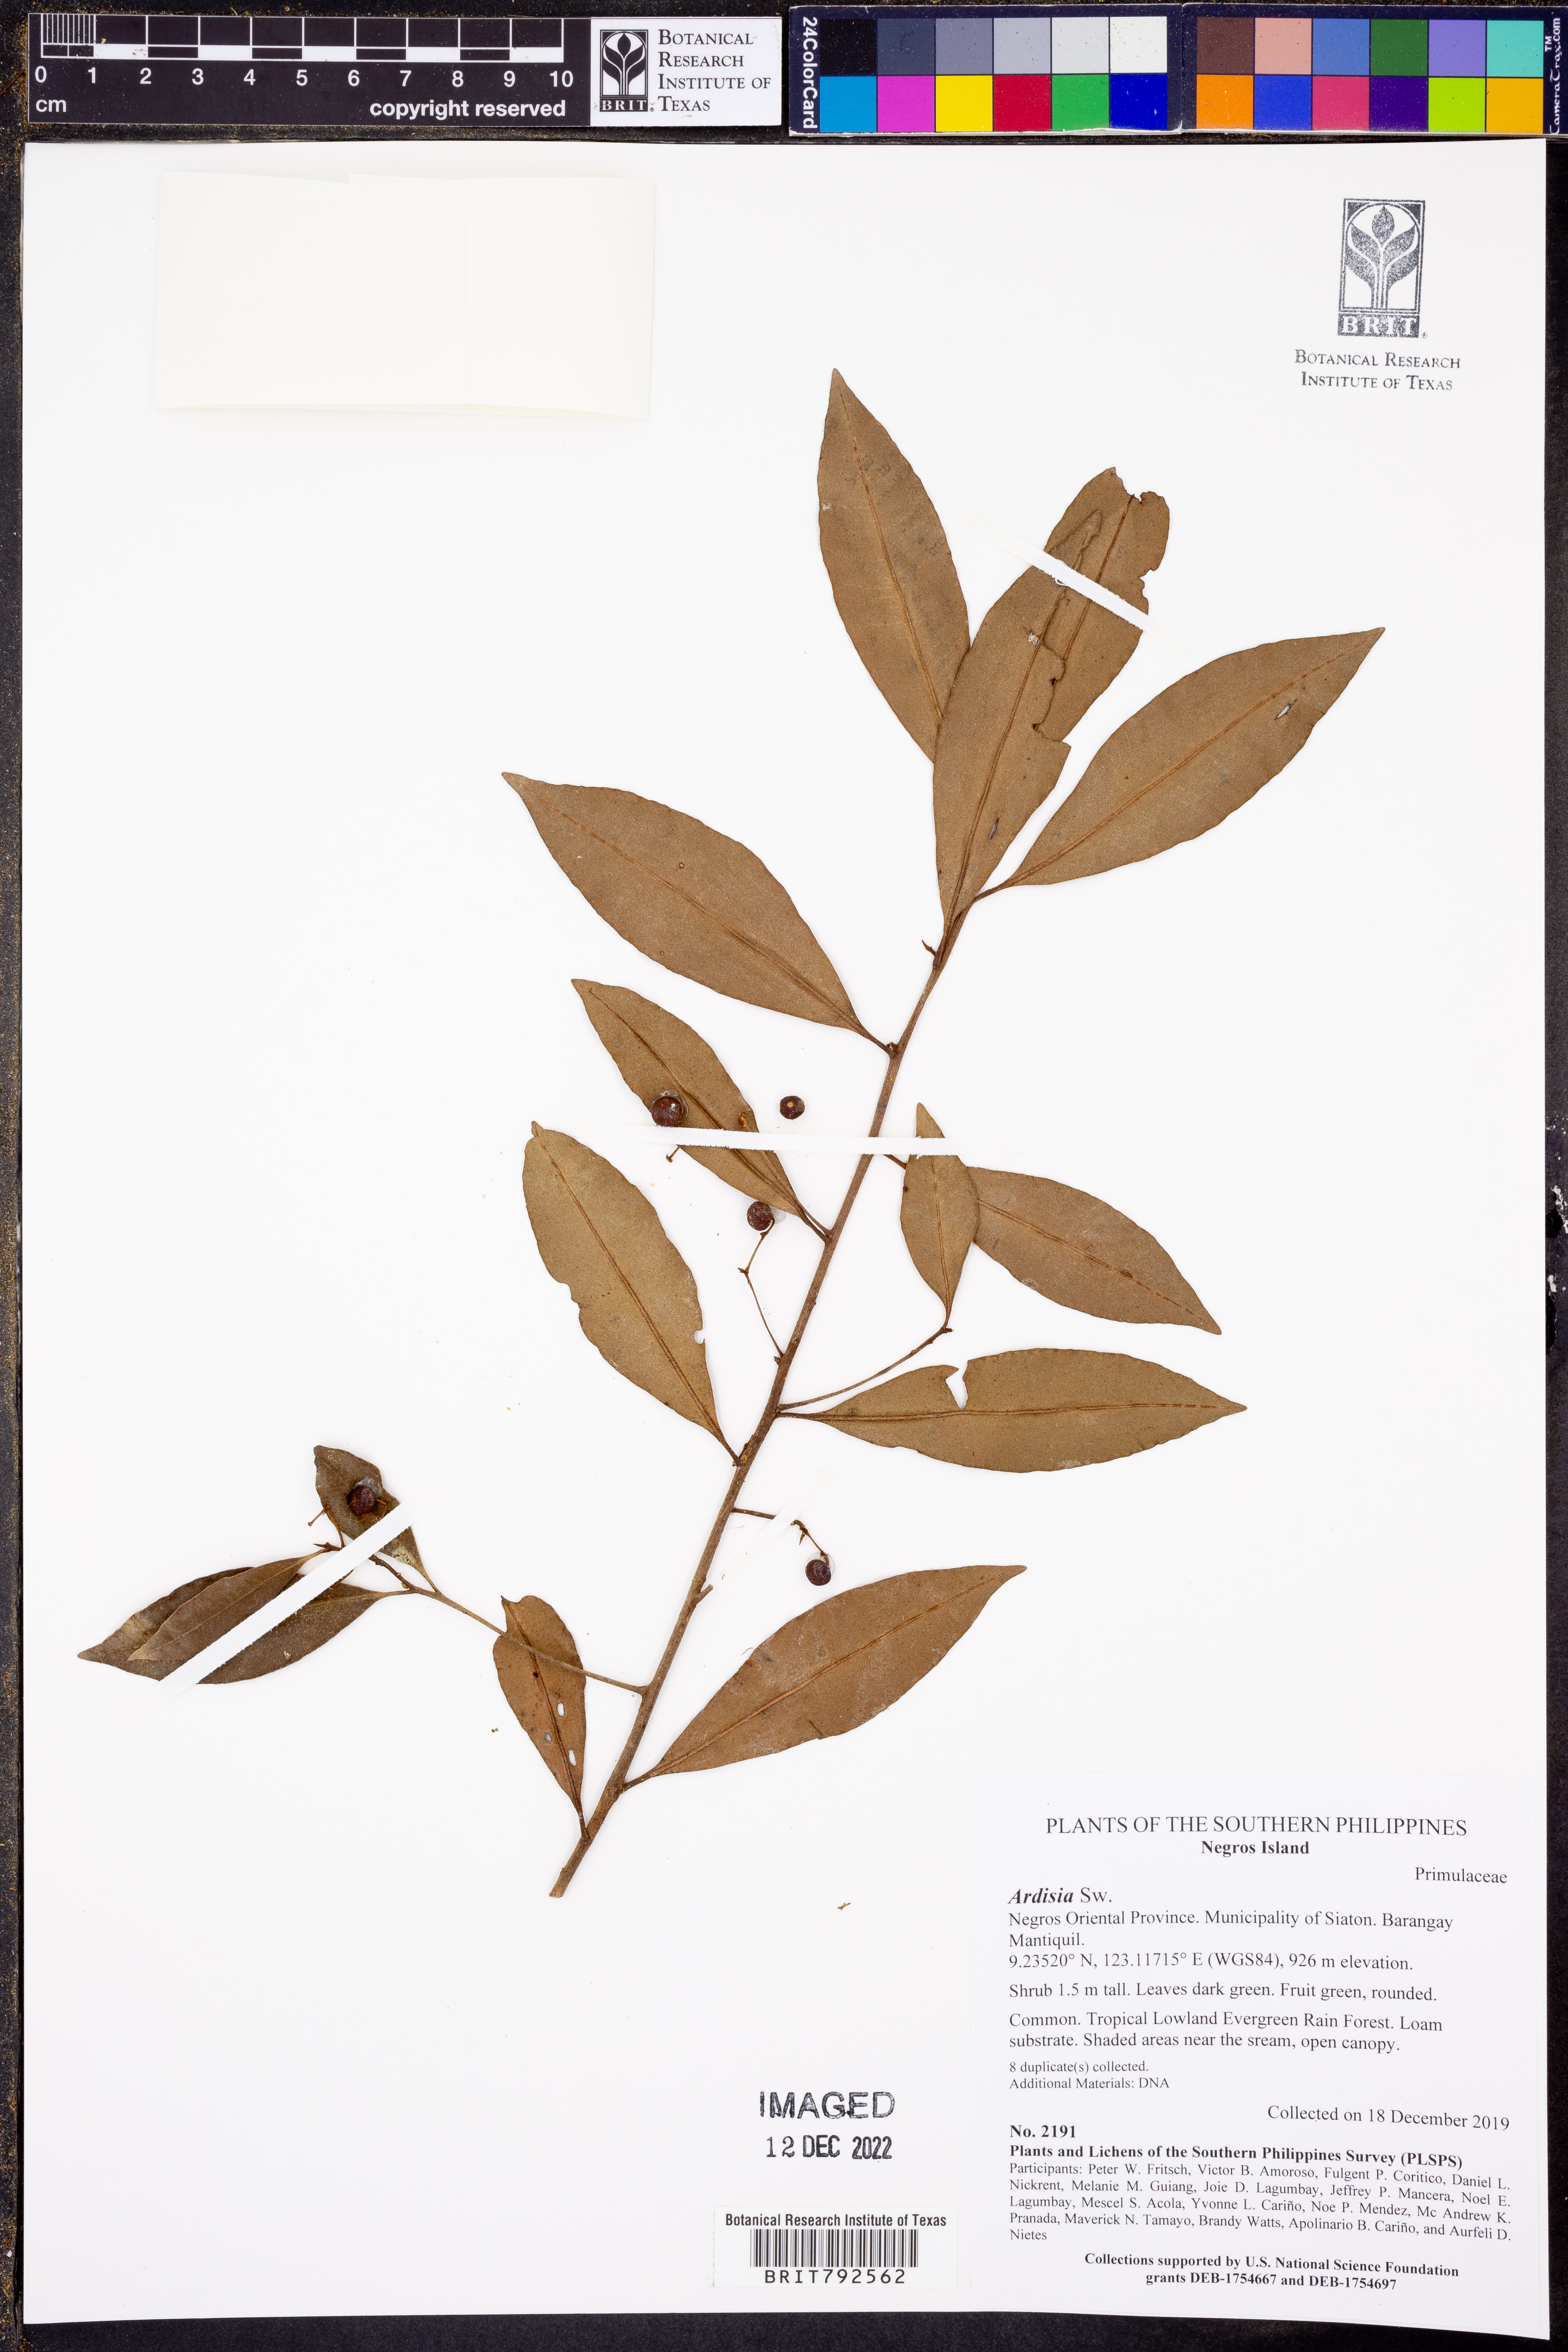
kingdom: Plantae
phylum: Tracheophyta
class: Magnoliopsida
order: Ericales
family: Primulaceae
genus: Ardisia
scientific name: Ardisia
